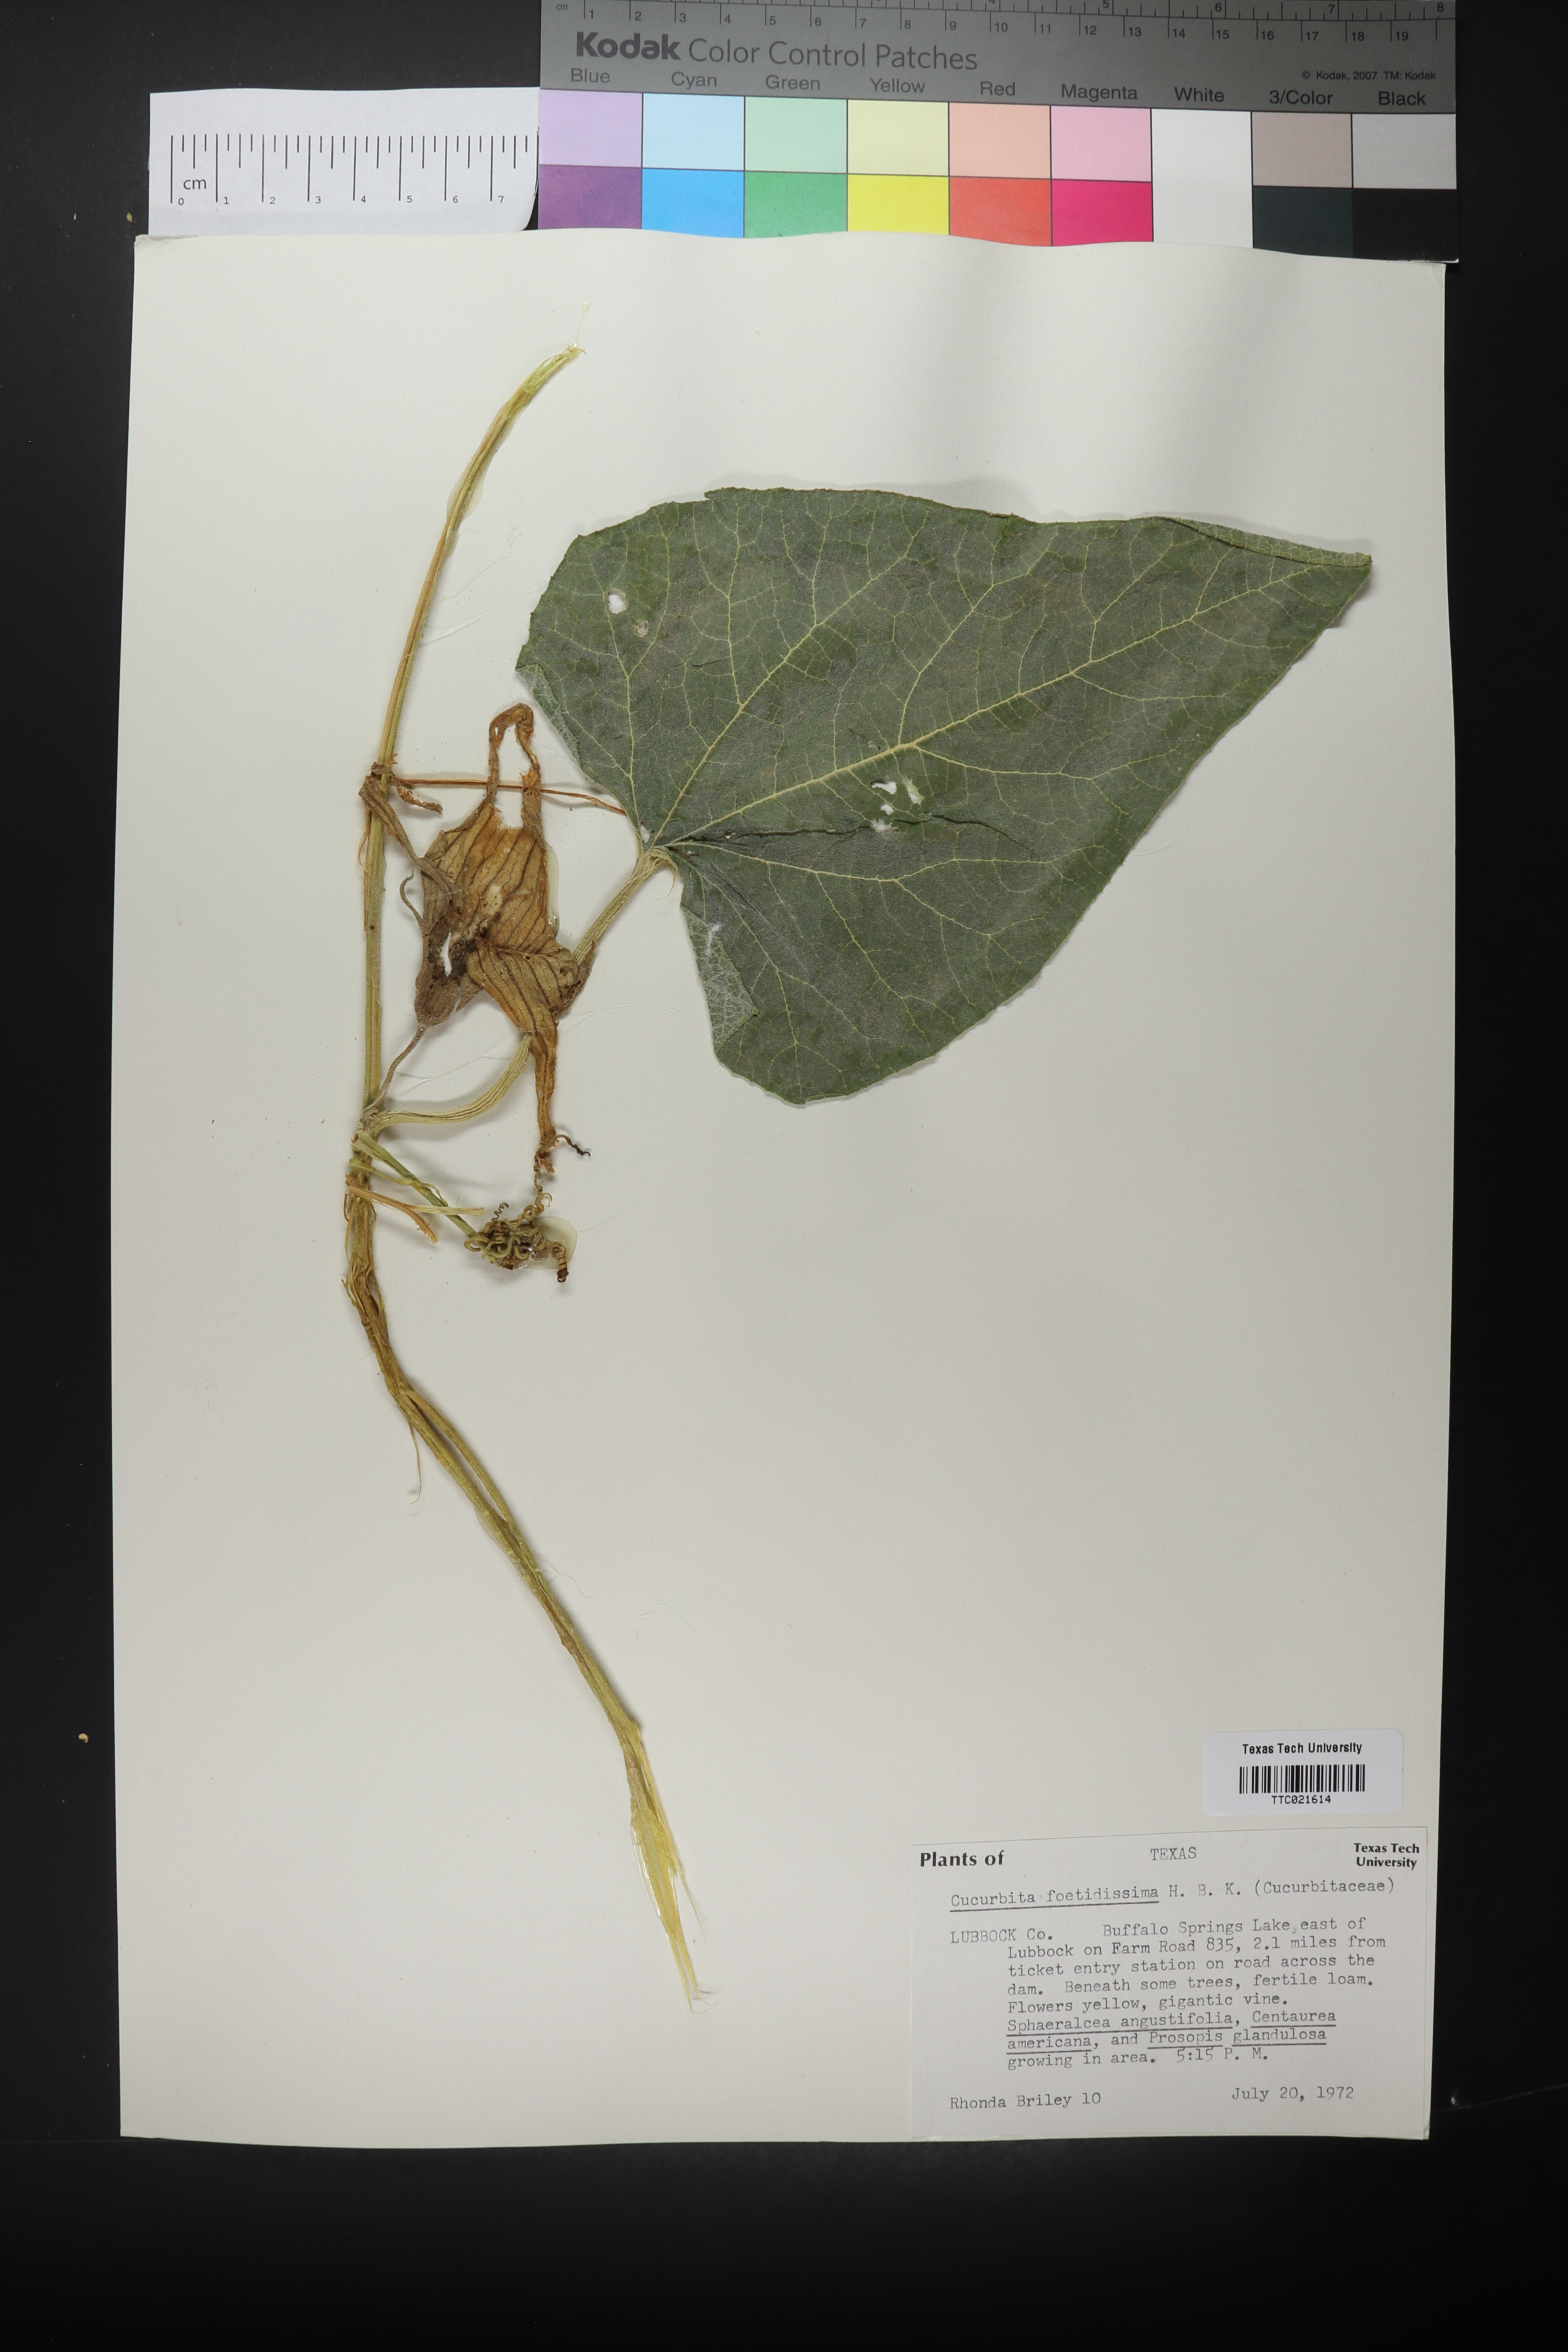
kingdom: Plantae
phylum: Tracheophyta
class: Magnoliopsida
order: Cucurbitales
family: Cucurbitaceae
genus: Cucurbita
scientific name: Cucurbita foetidissima
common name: Buffalo gourd
